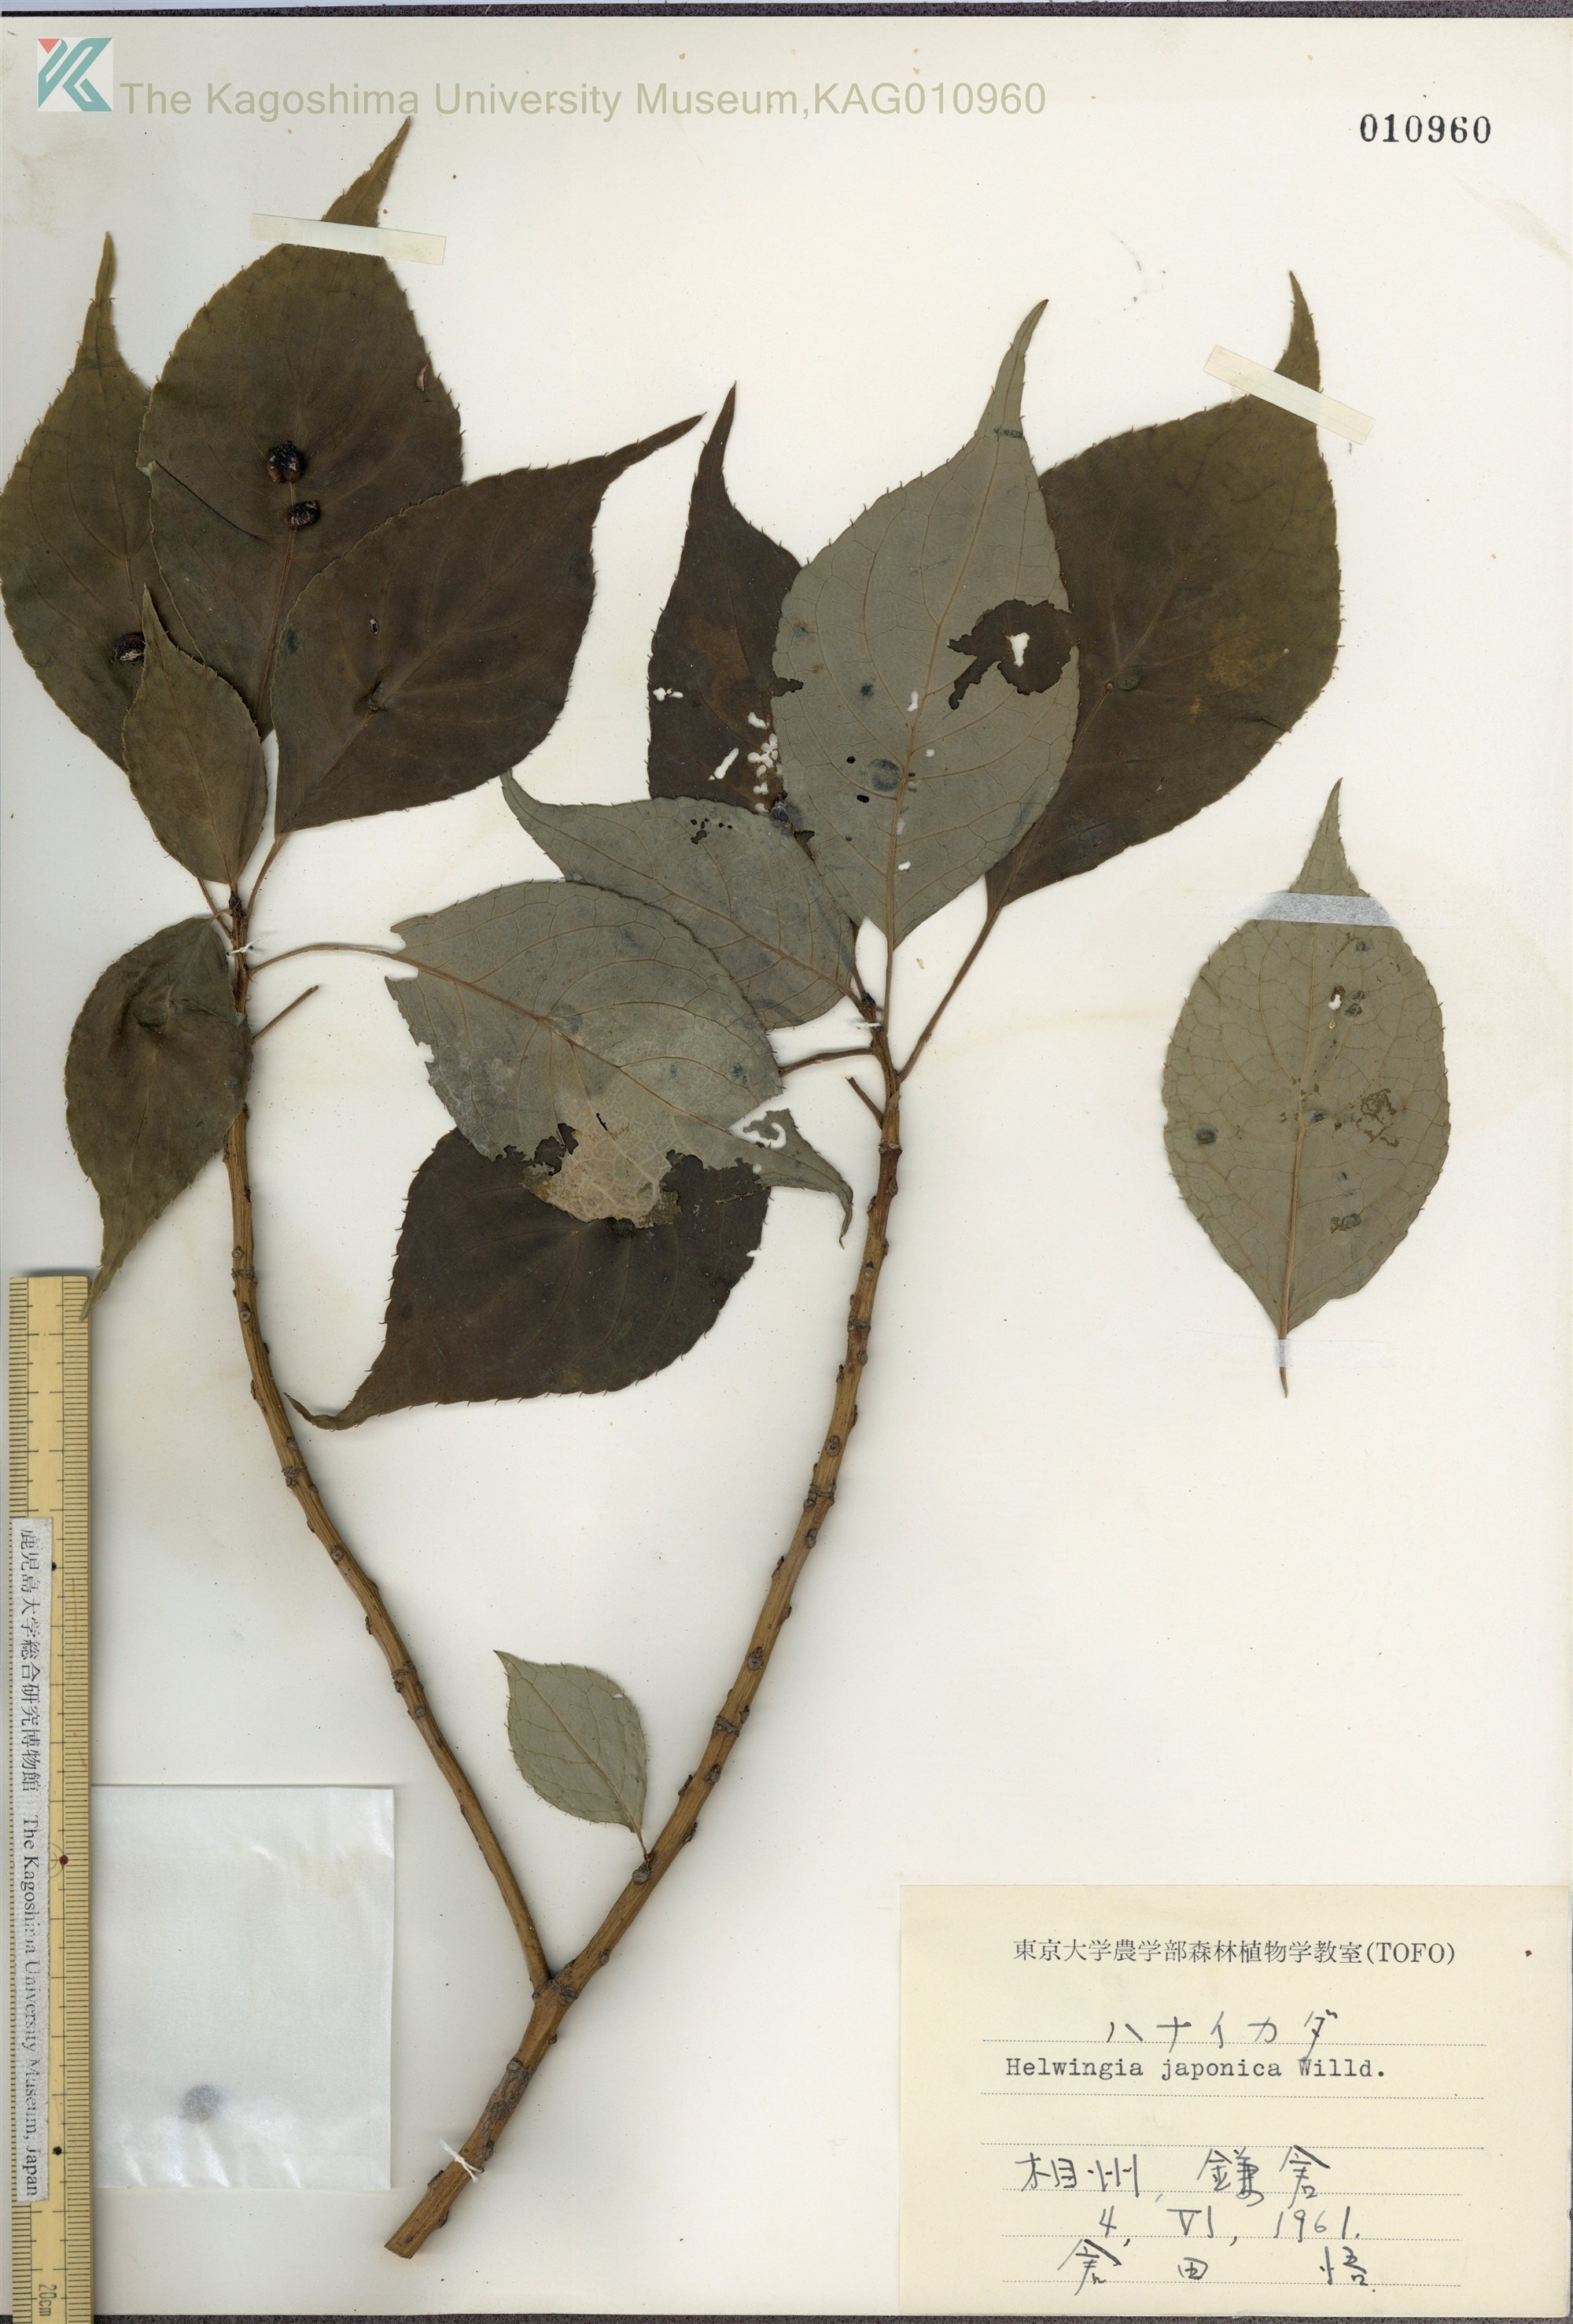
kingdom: Plantae
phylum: Tracheophyta
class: Magnoliopsida
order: Aquifoliales
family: Helwingiaceae
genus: Helwingia
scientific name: Helwingia japonica
